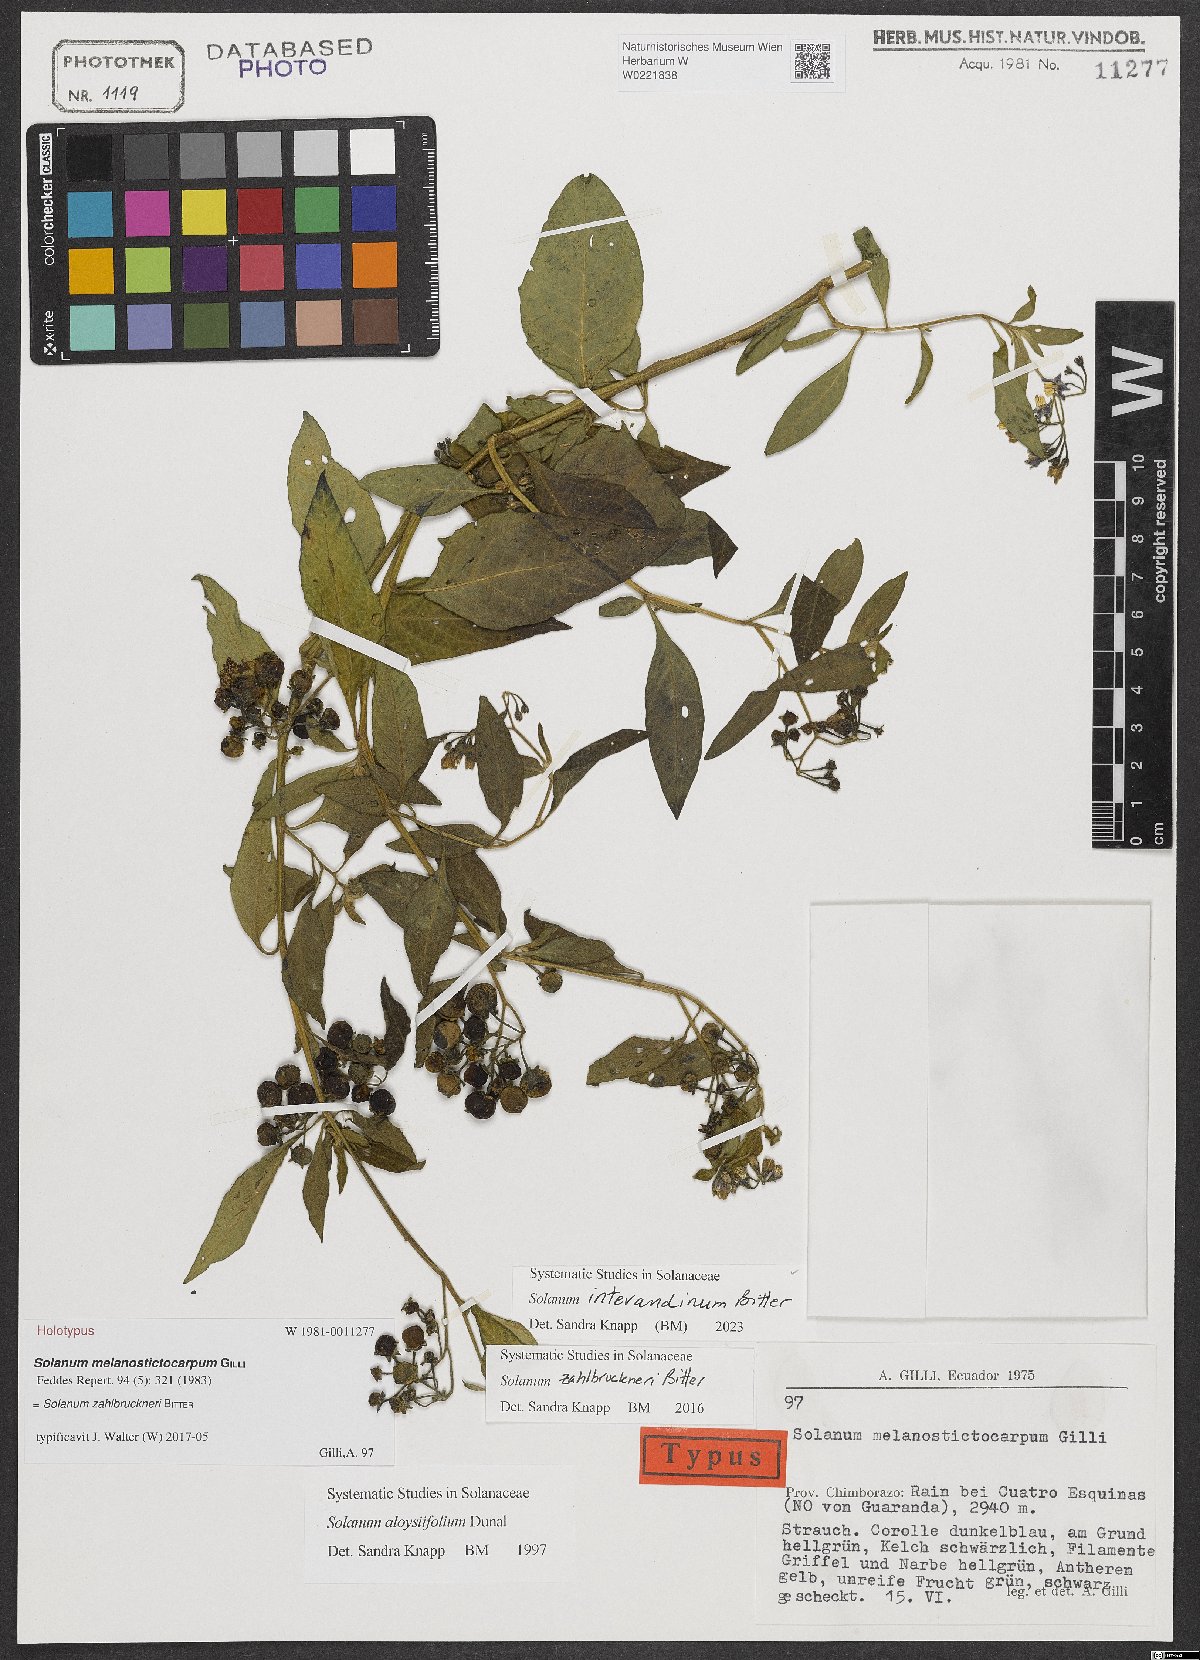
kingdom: Plantae
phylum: Tracheophyta
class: Magnoliopsida
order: Solanales
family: Solanaceae
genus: Solanum
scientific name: Solanum aloysiifolium
